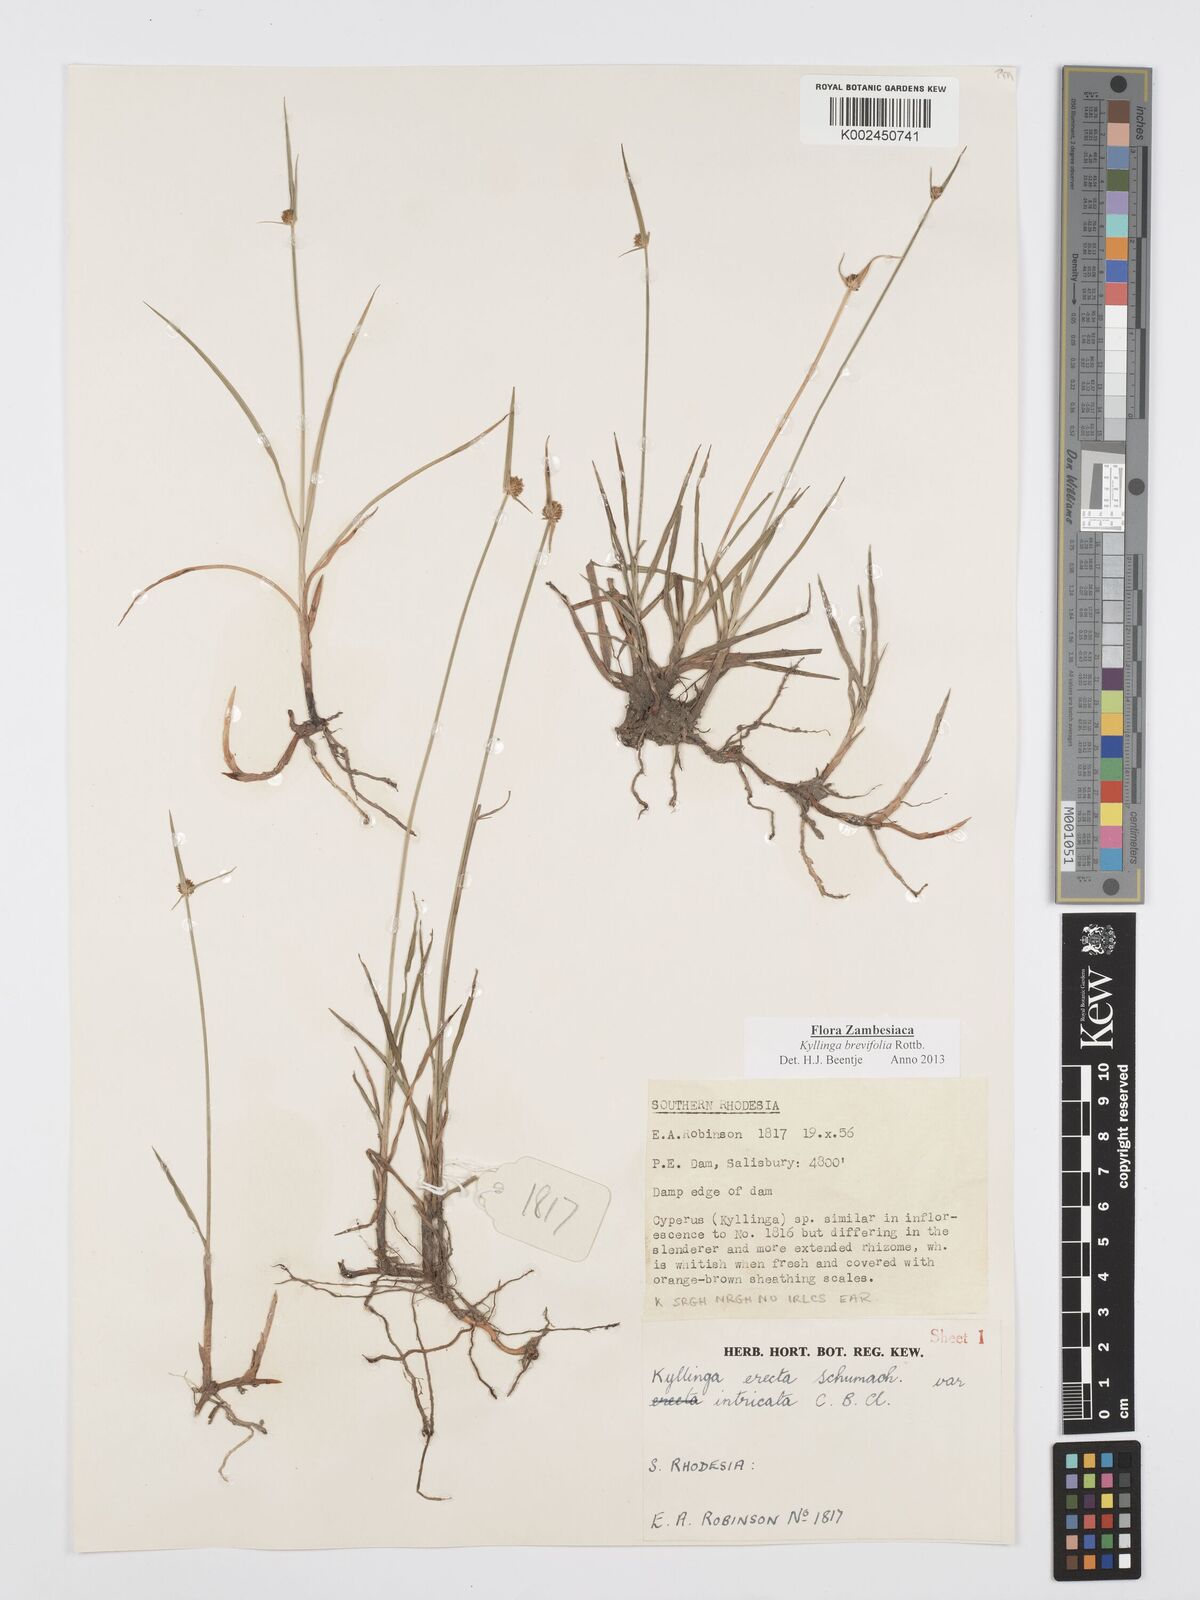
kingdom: Plantae
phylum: Tracheophyta
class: Liliopsida
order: Poales
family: Cyperaceae
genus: Cyperus
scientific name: Cyperus brevifolius
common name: Globe kyllinga
